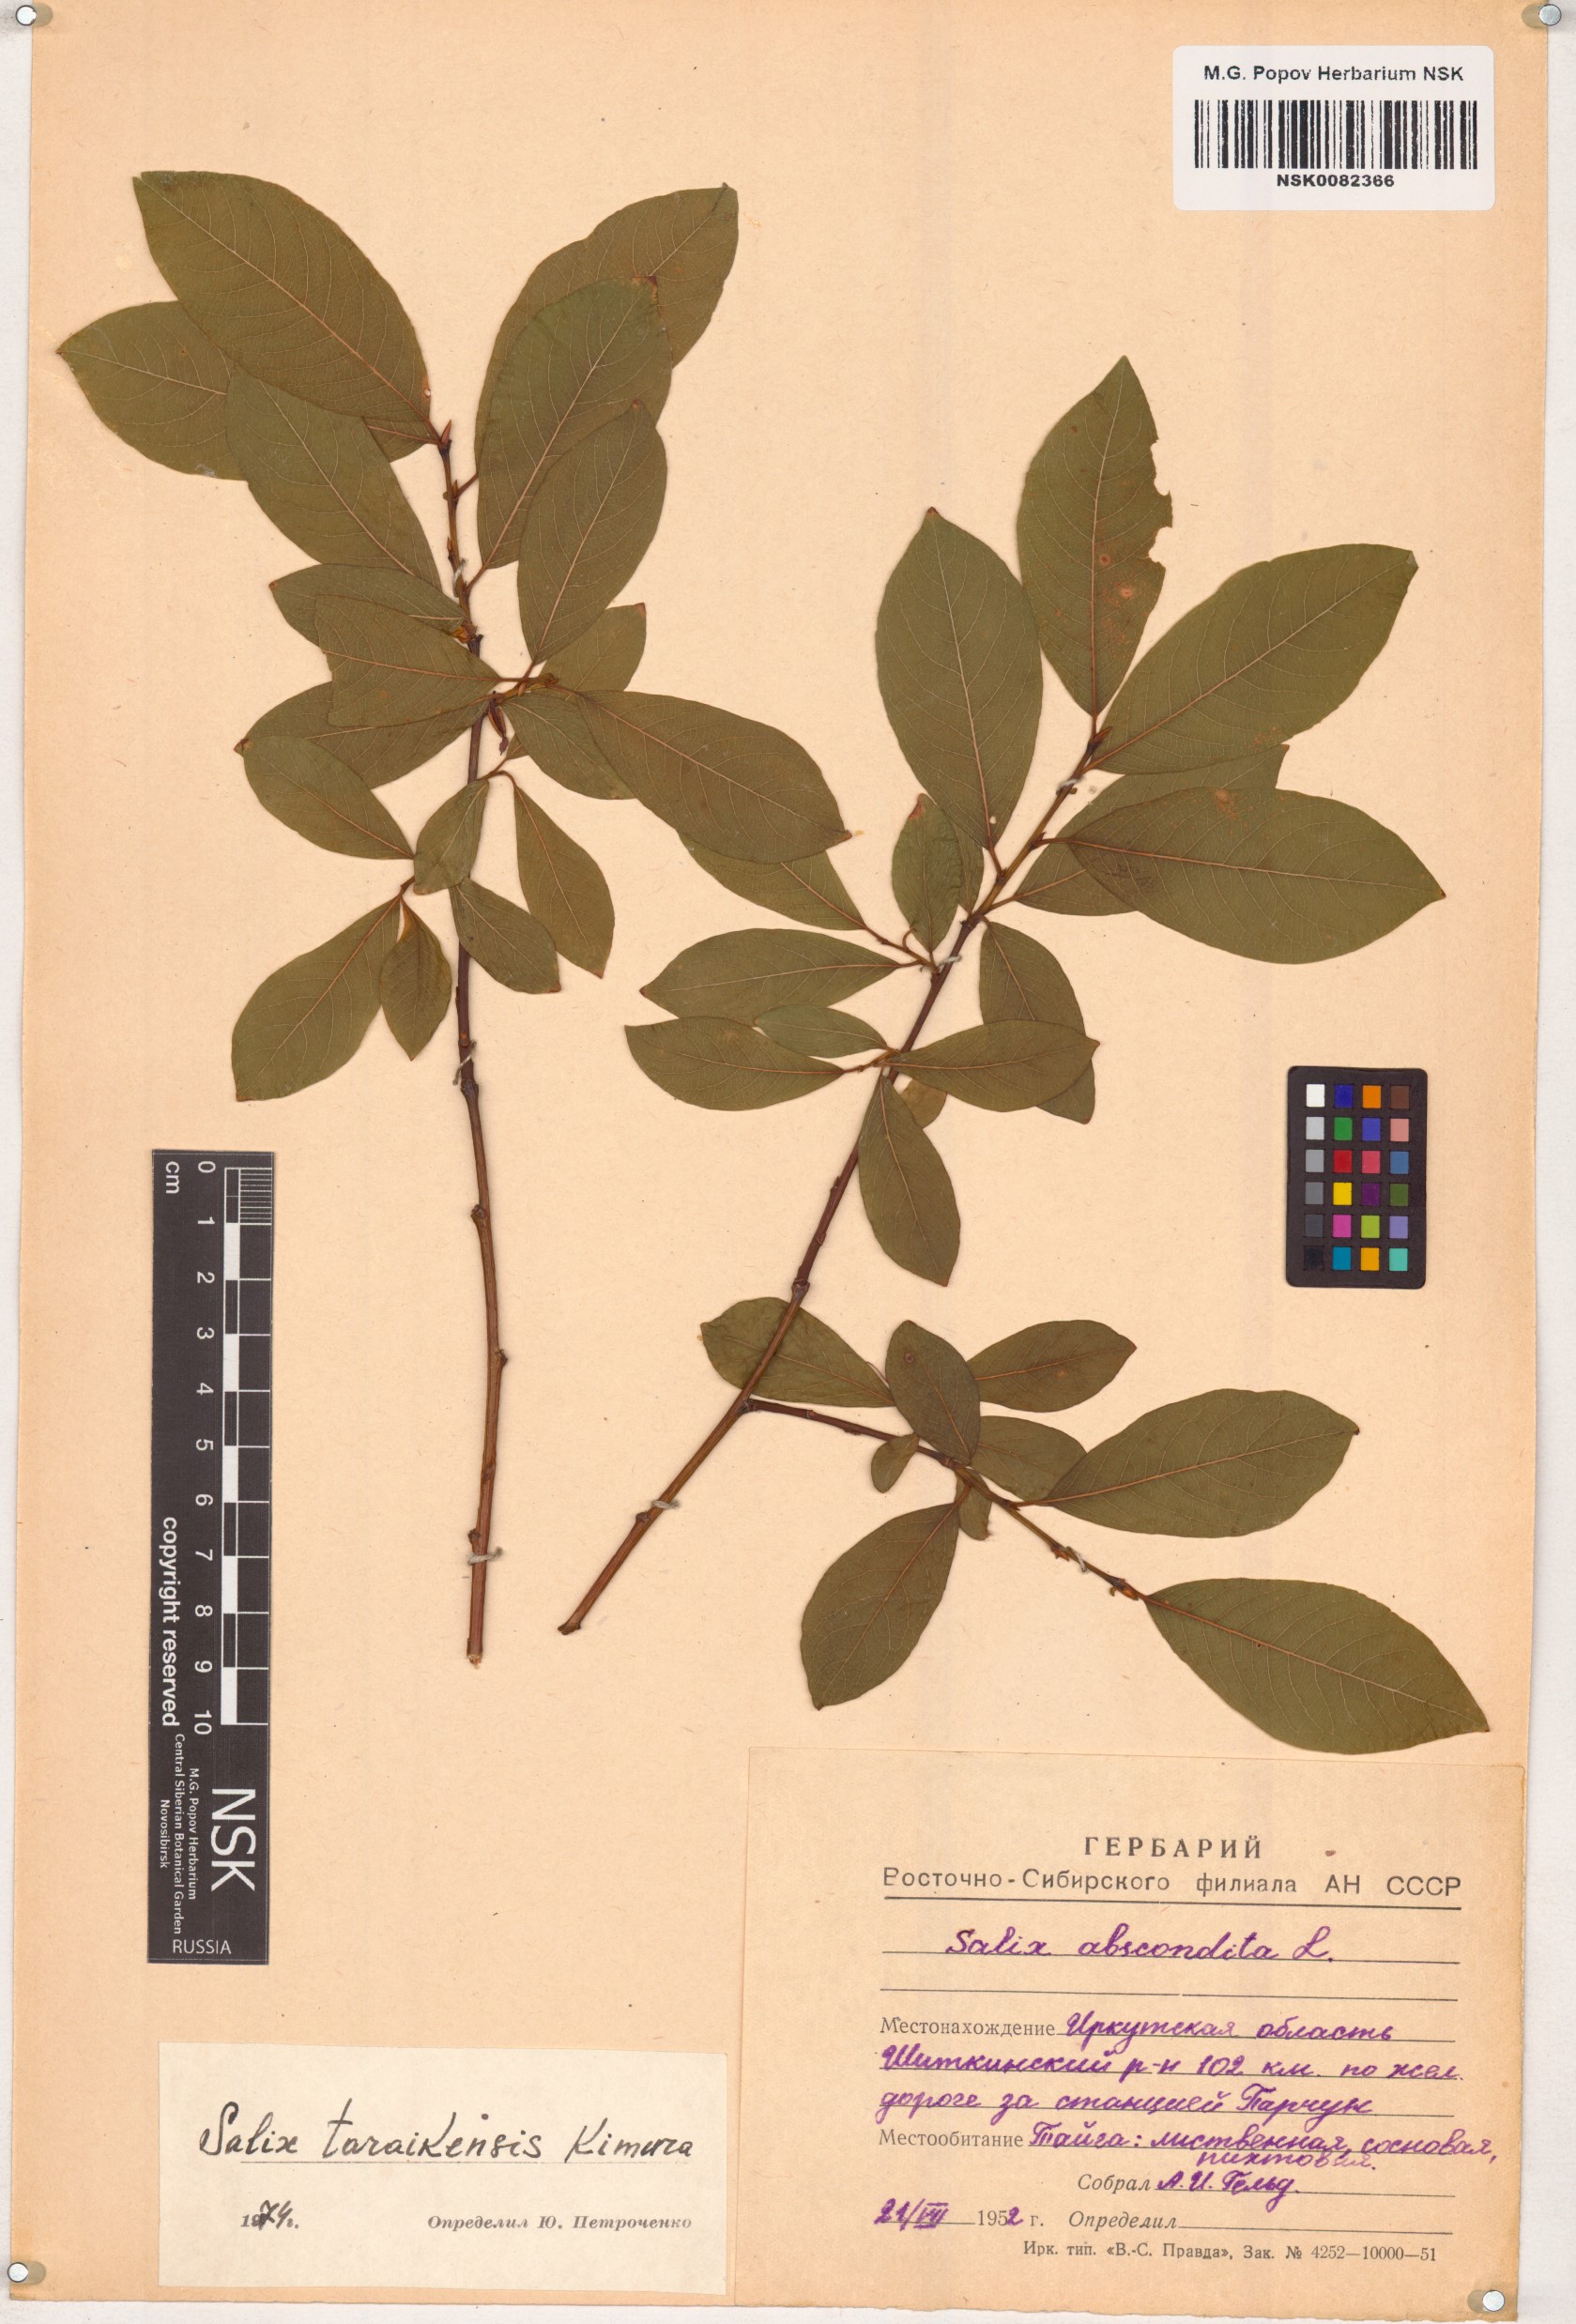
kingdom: Plantae
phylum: Tracheophyta
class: Magnoliopsida
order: Malpighiales
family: Salicaceae
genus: Salix
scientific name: Salix taraikensis
